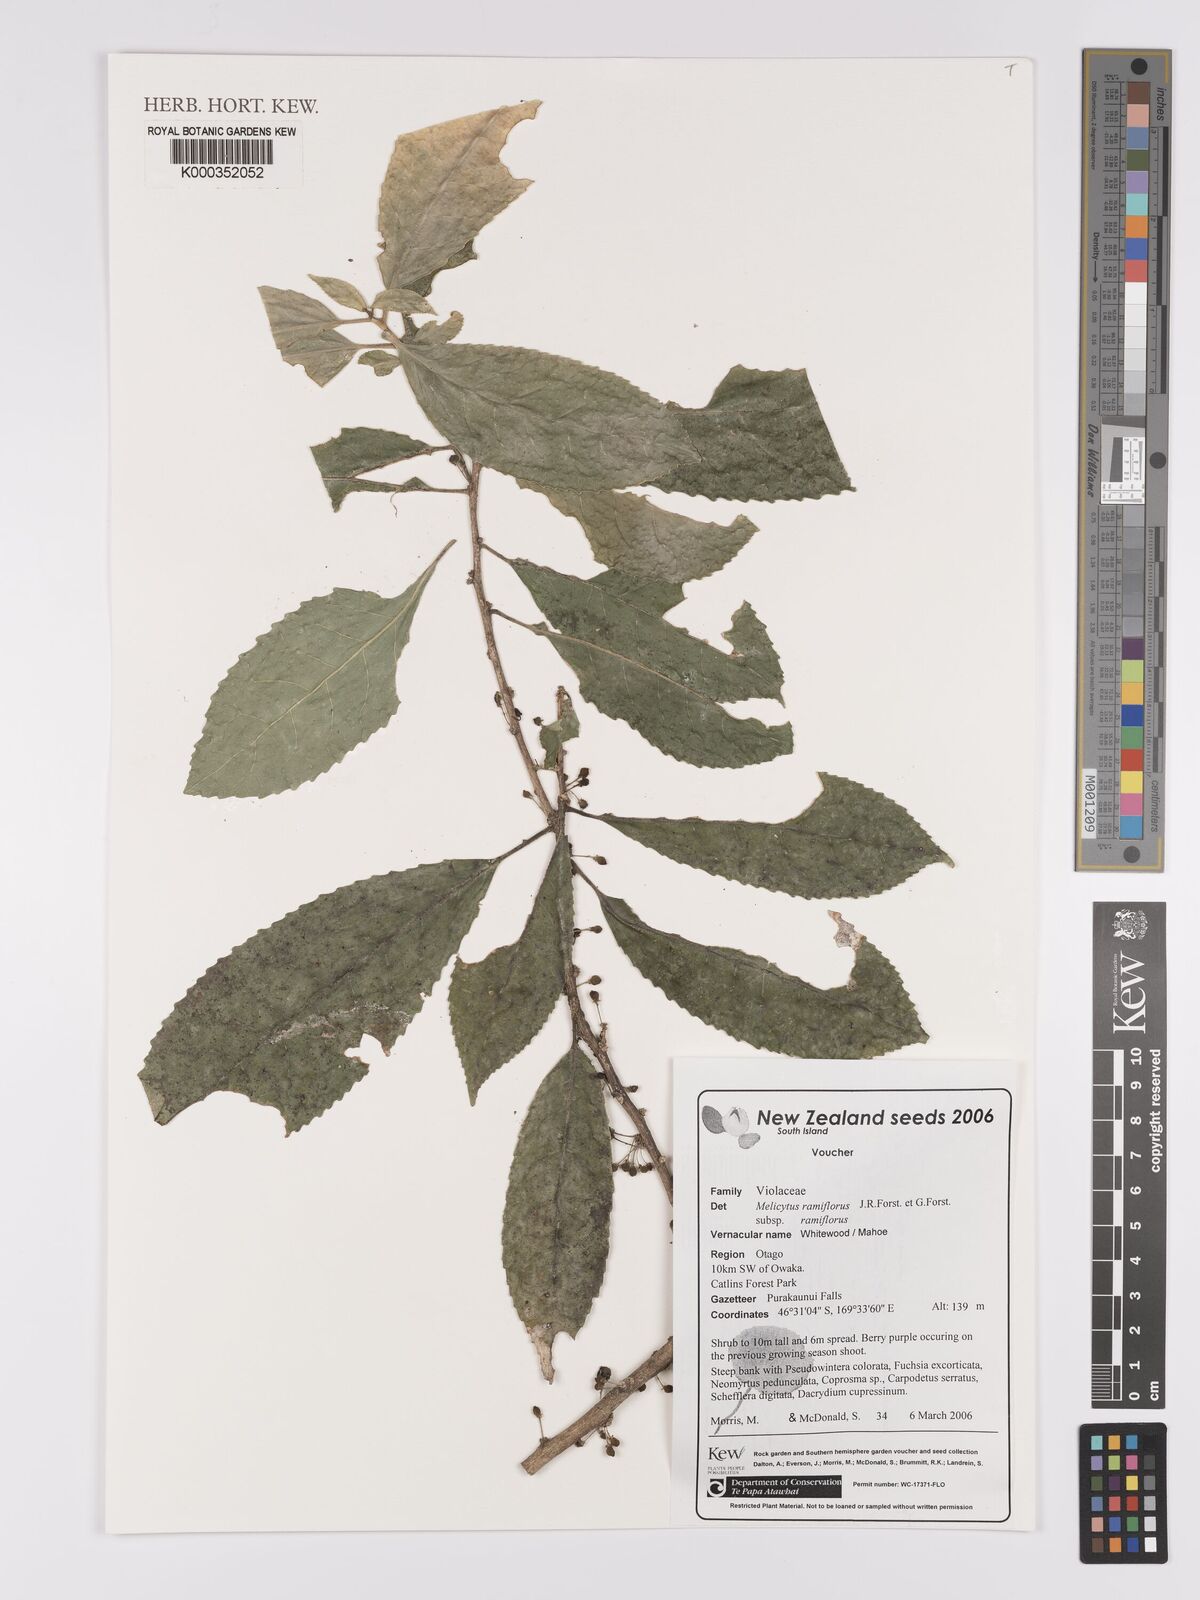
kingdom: Plantae
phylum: Tracheophyta
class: Magnoliopsida
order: Malpighiales
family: Violaceae
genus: Melicytus
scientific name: Melicytus ramiflorus
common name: Mahoe
